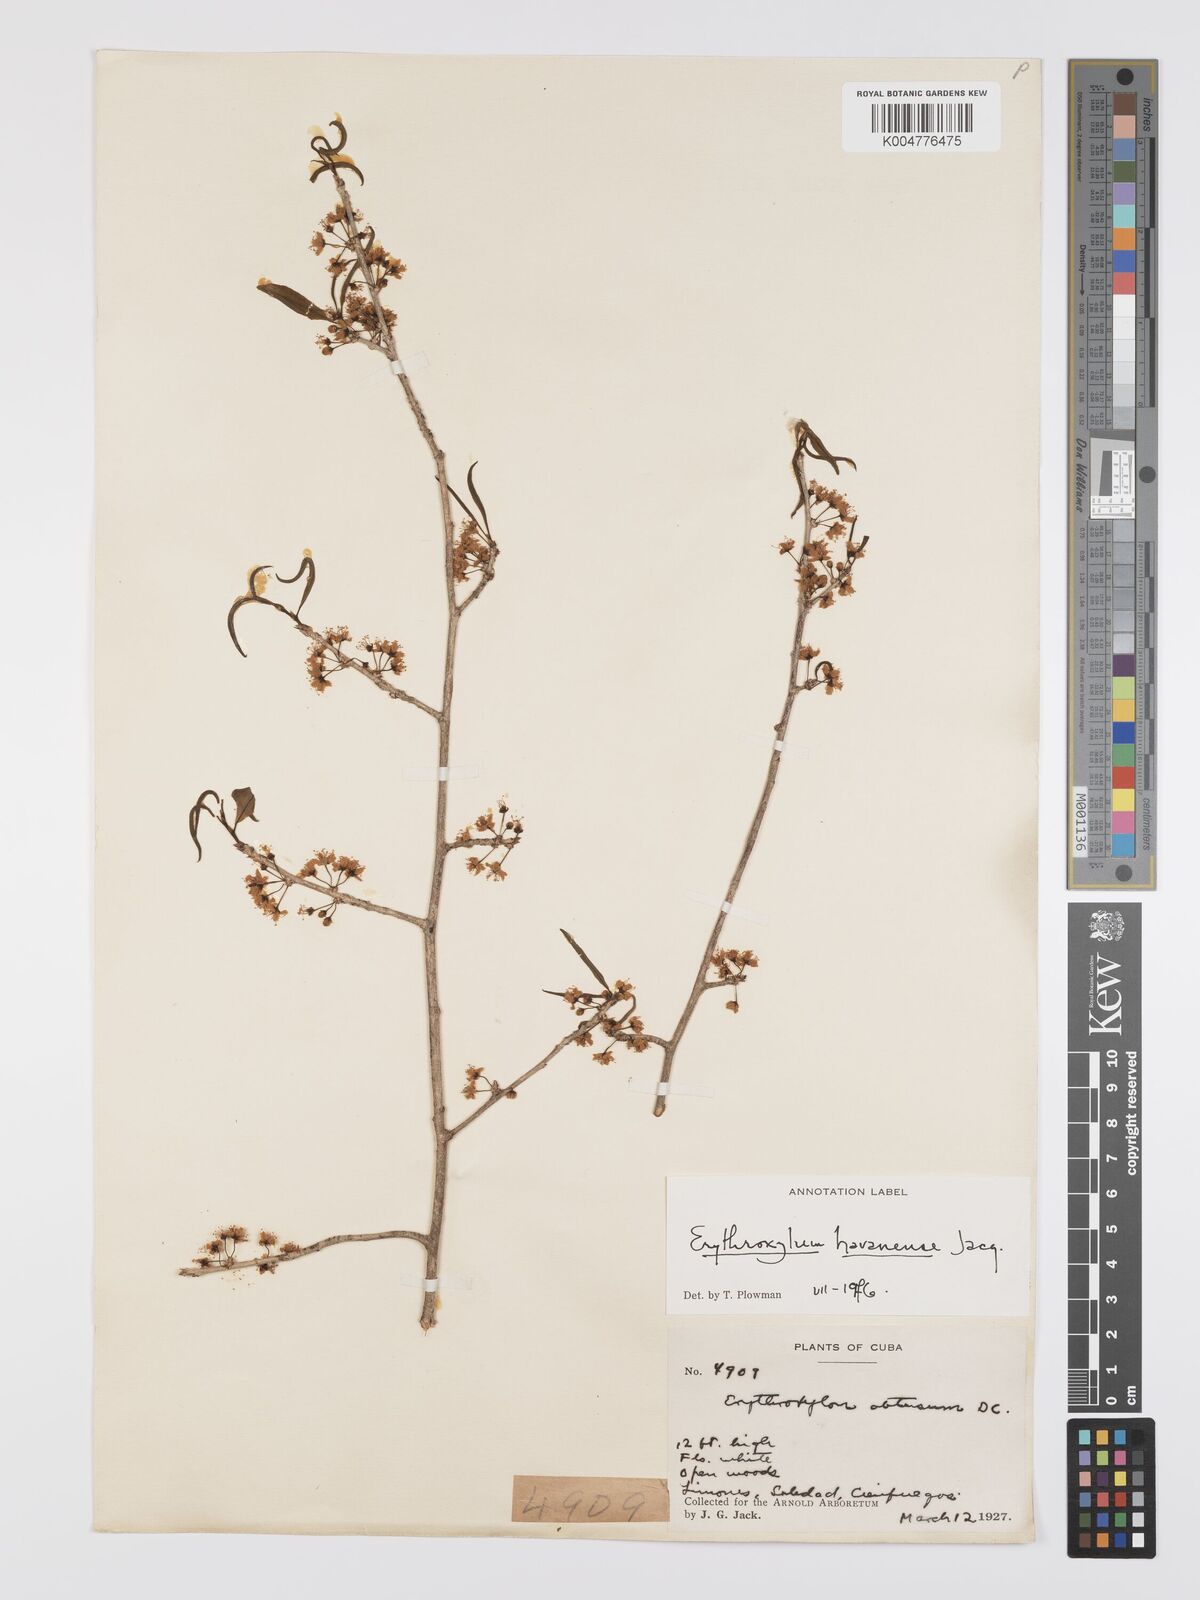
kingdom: Plantae
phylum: Tracheophyta
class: Magnoliopsida
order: Malpighiales
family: Erythroxylaceae
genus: Erythroxylum
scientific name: Erythroxylum
